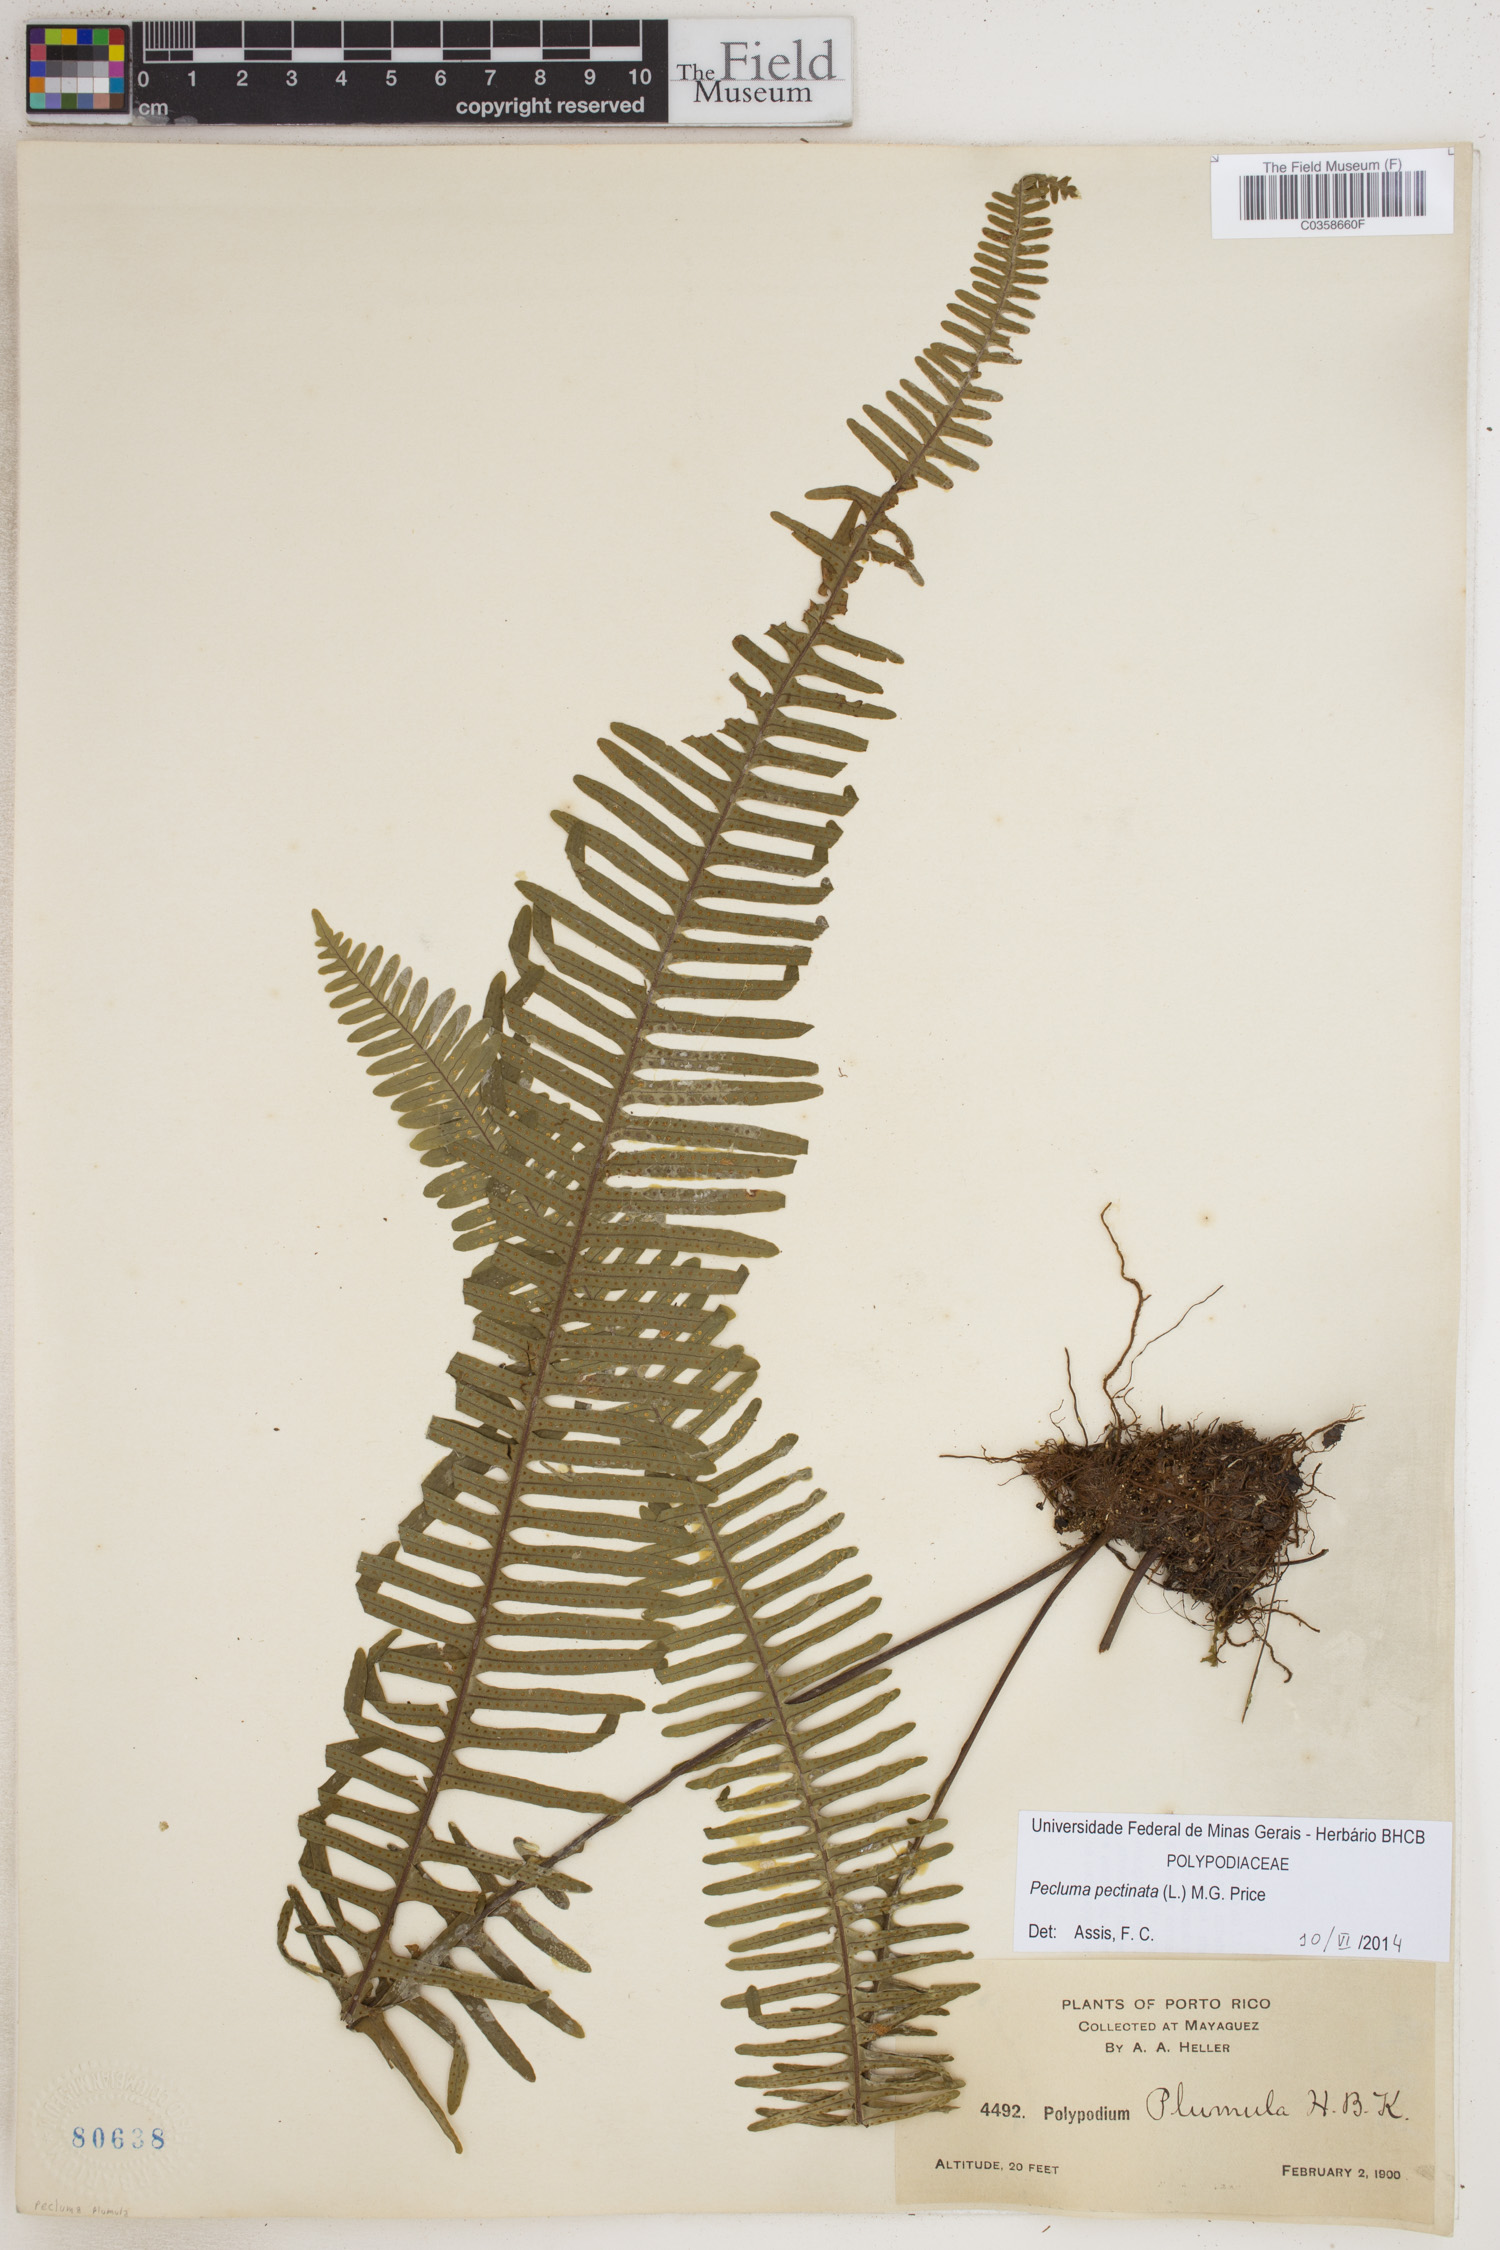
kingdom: Plantae
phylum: Tracheophyta
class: Polypodiopsida
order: Polypodiales
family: Polypodiaceae
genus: Pecluma
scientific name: Pecluma pectinata
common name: Msasa fern
